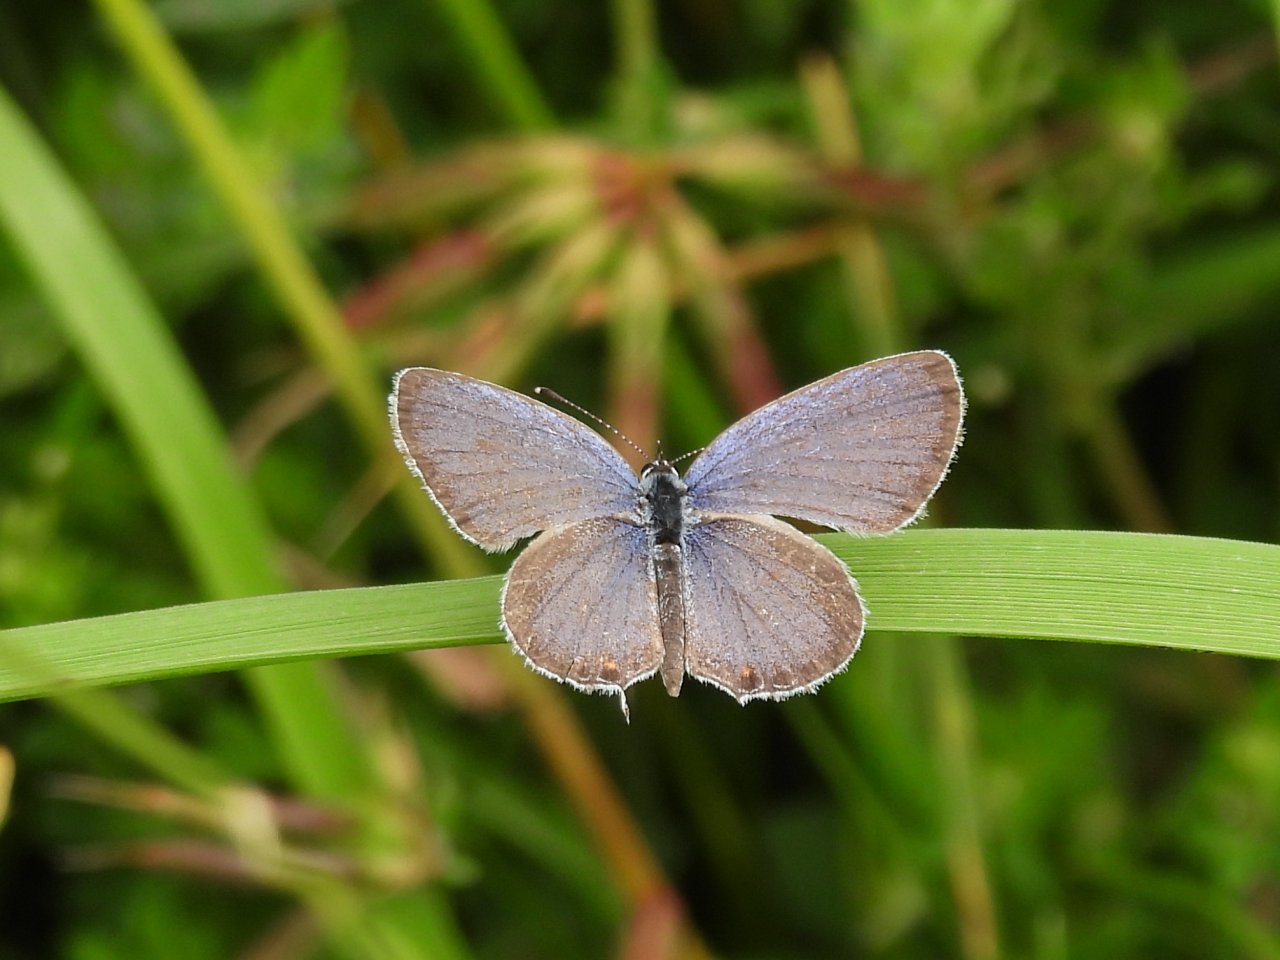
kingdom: Animalia
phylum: Arthropoda
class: Insecta
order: Lepidoptera
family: Lycaenidae
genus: Elkalyce
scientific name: Elkalyce comyntas
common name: Eastern Tailed-Blue
